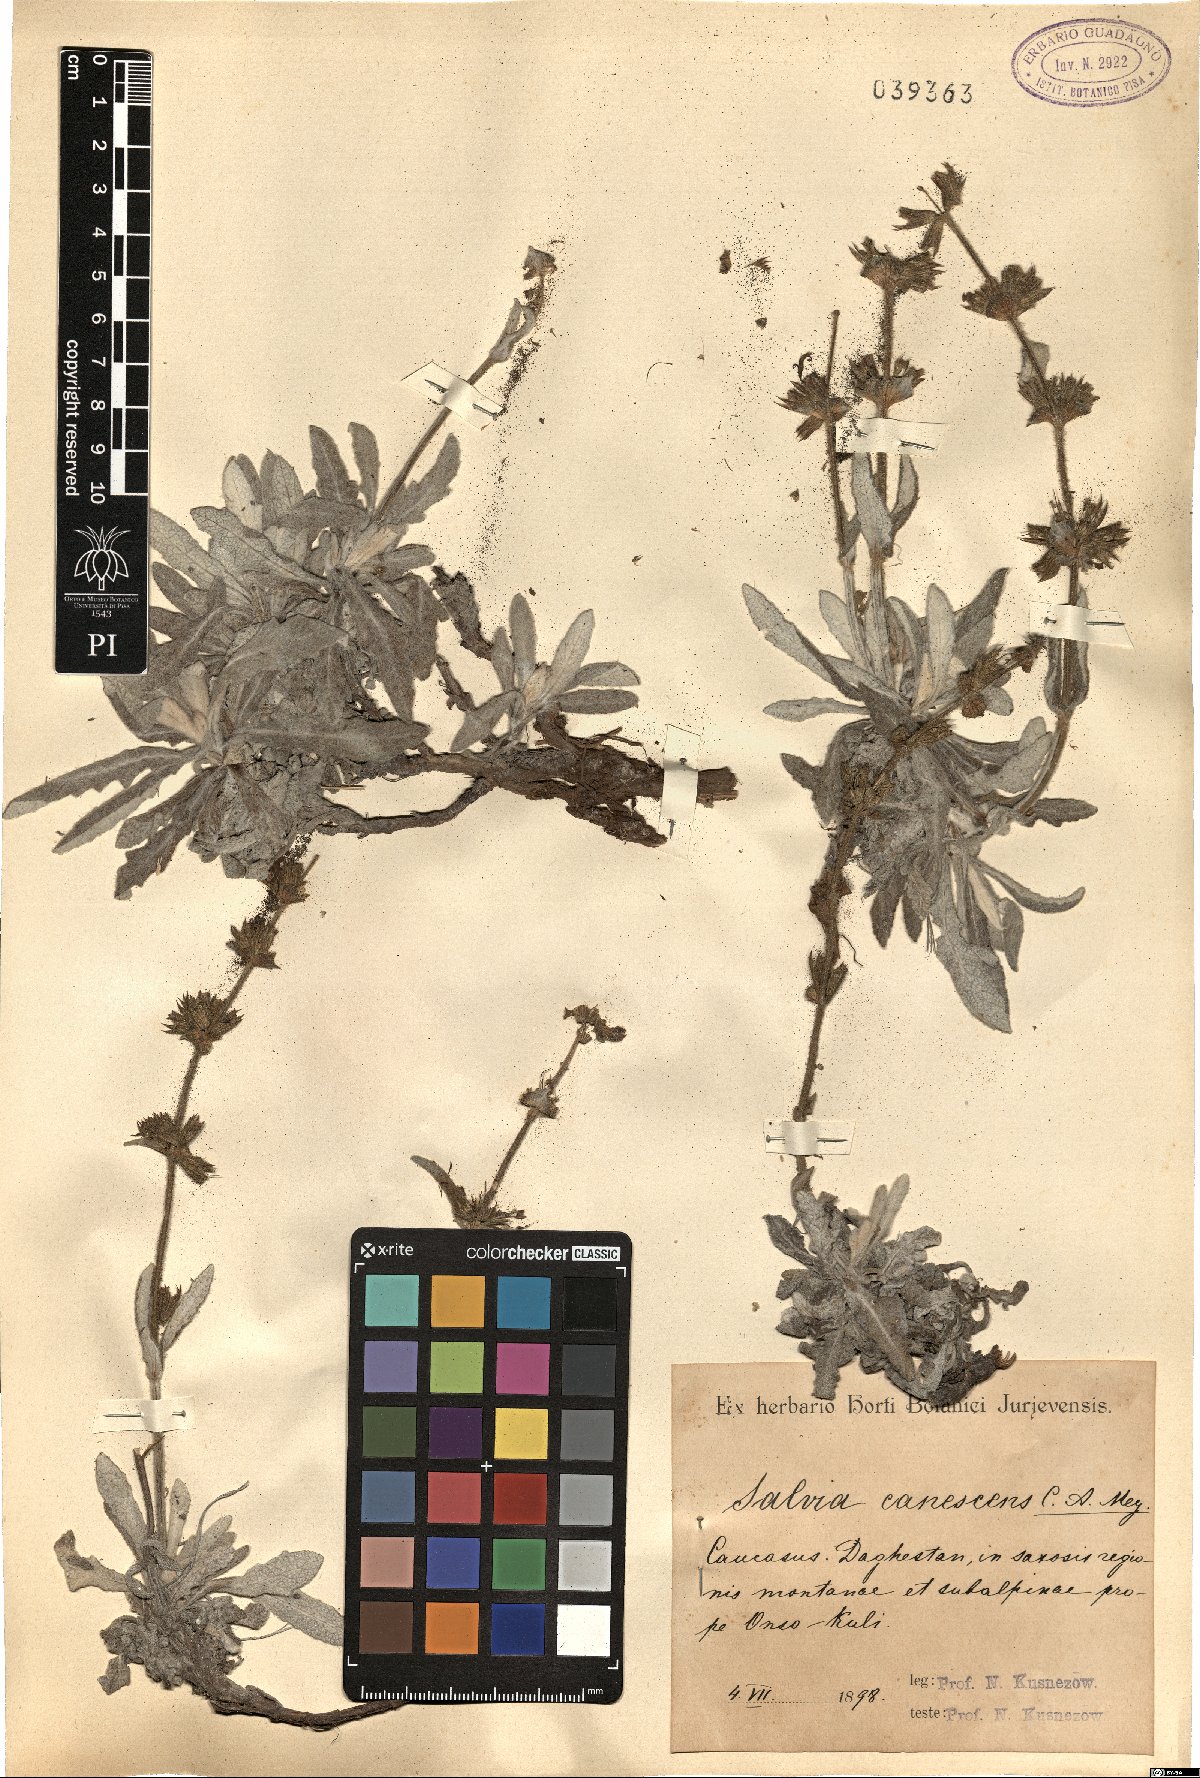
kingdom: Plantae
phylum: Tracheophyta
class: Magnoliopsida
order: Lamiales
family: Lamiaceae
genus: Salvia
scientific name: Salvia canescens
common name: Hoary salvia
